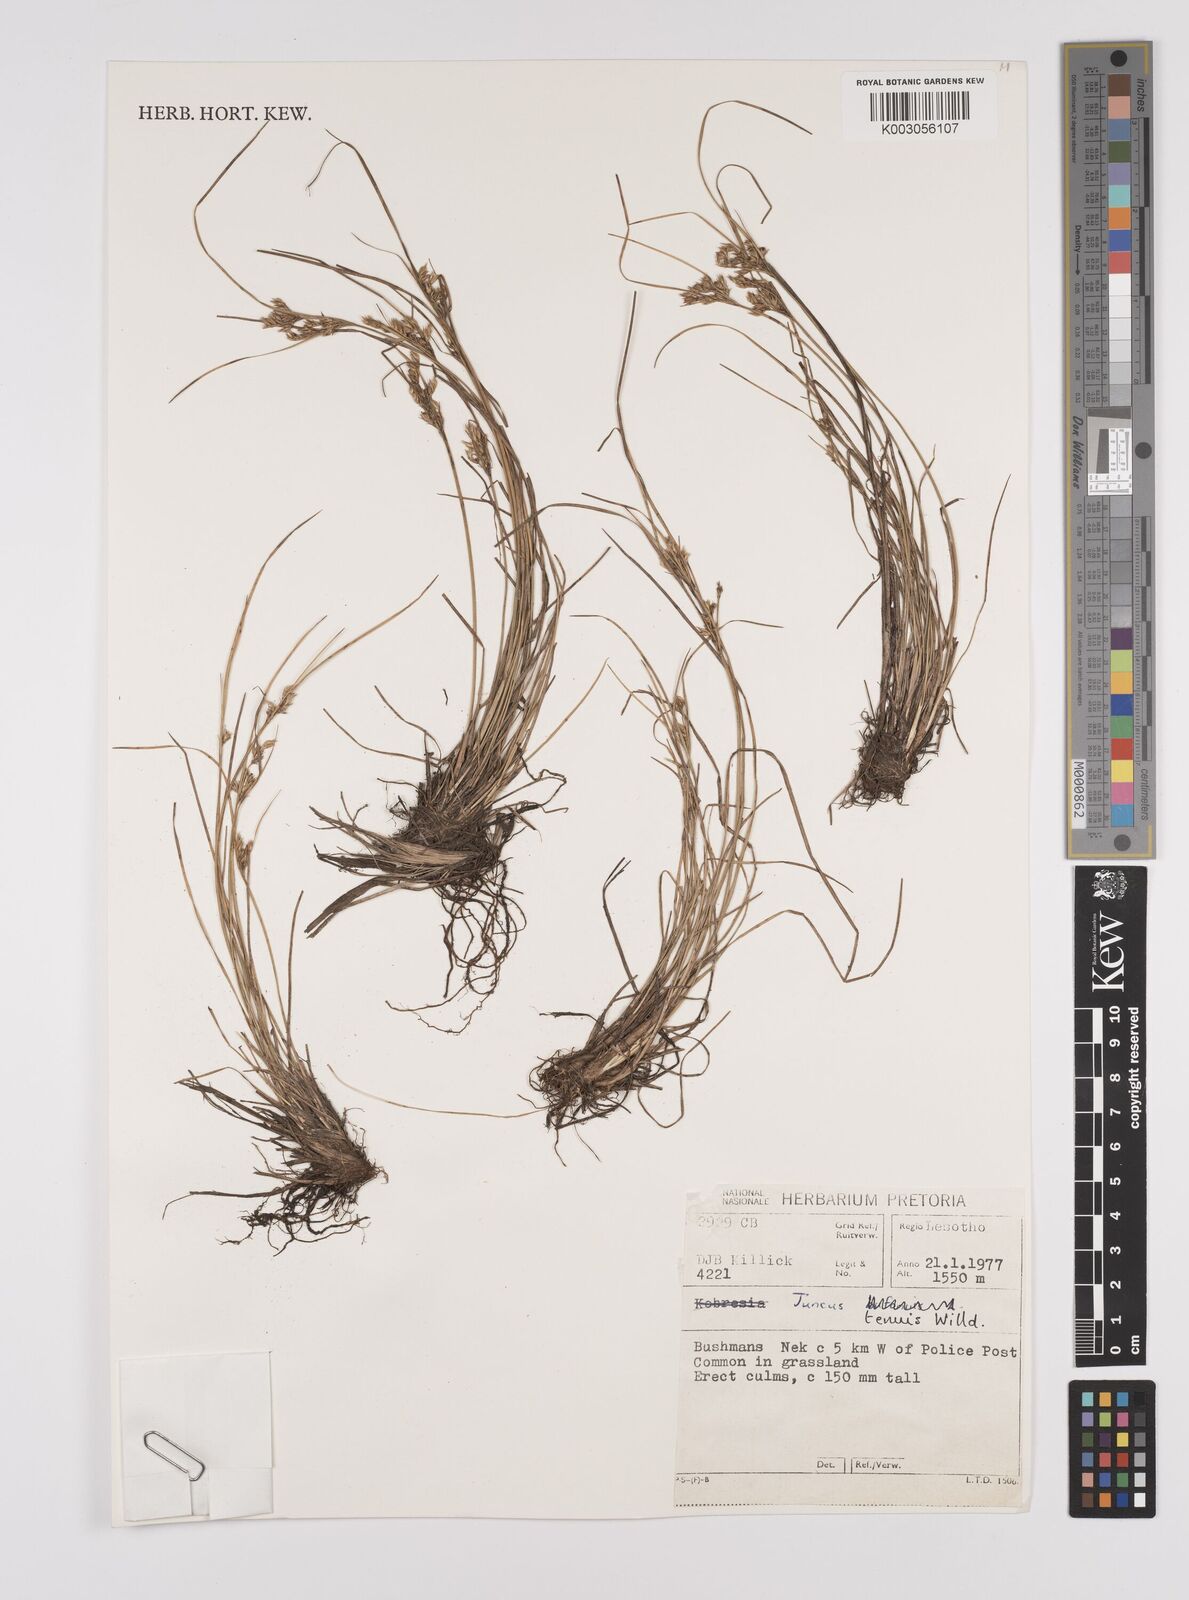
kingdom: Plantae
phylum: Tracheophyta
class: Liliopsida
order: Poales
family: Juncaceae
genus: Juncus
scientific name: Juncus tenuis
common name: Slender rush
